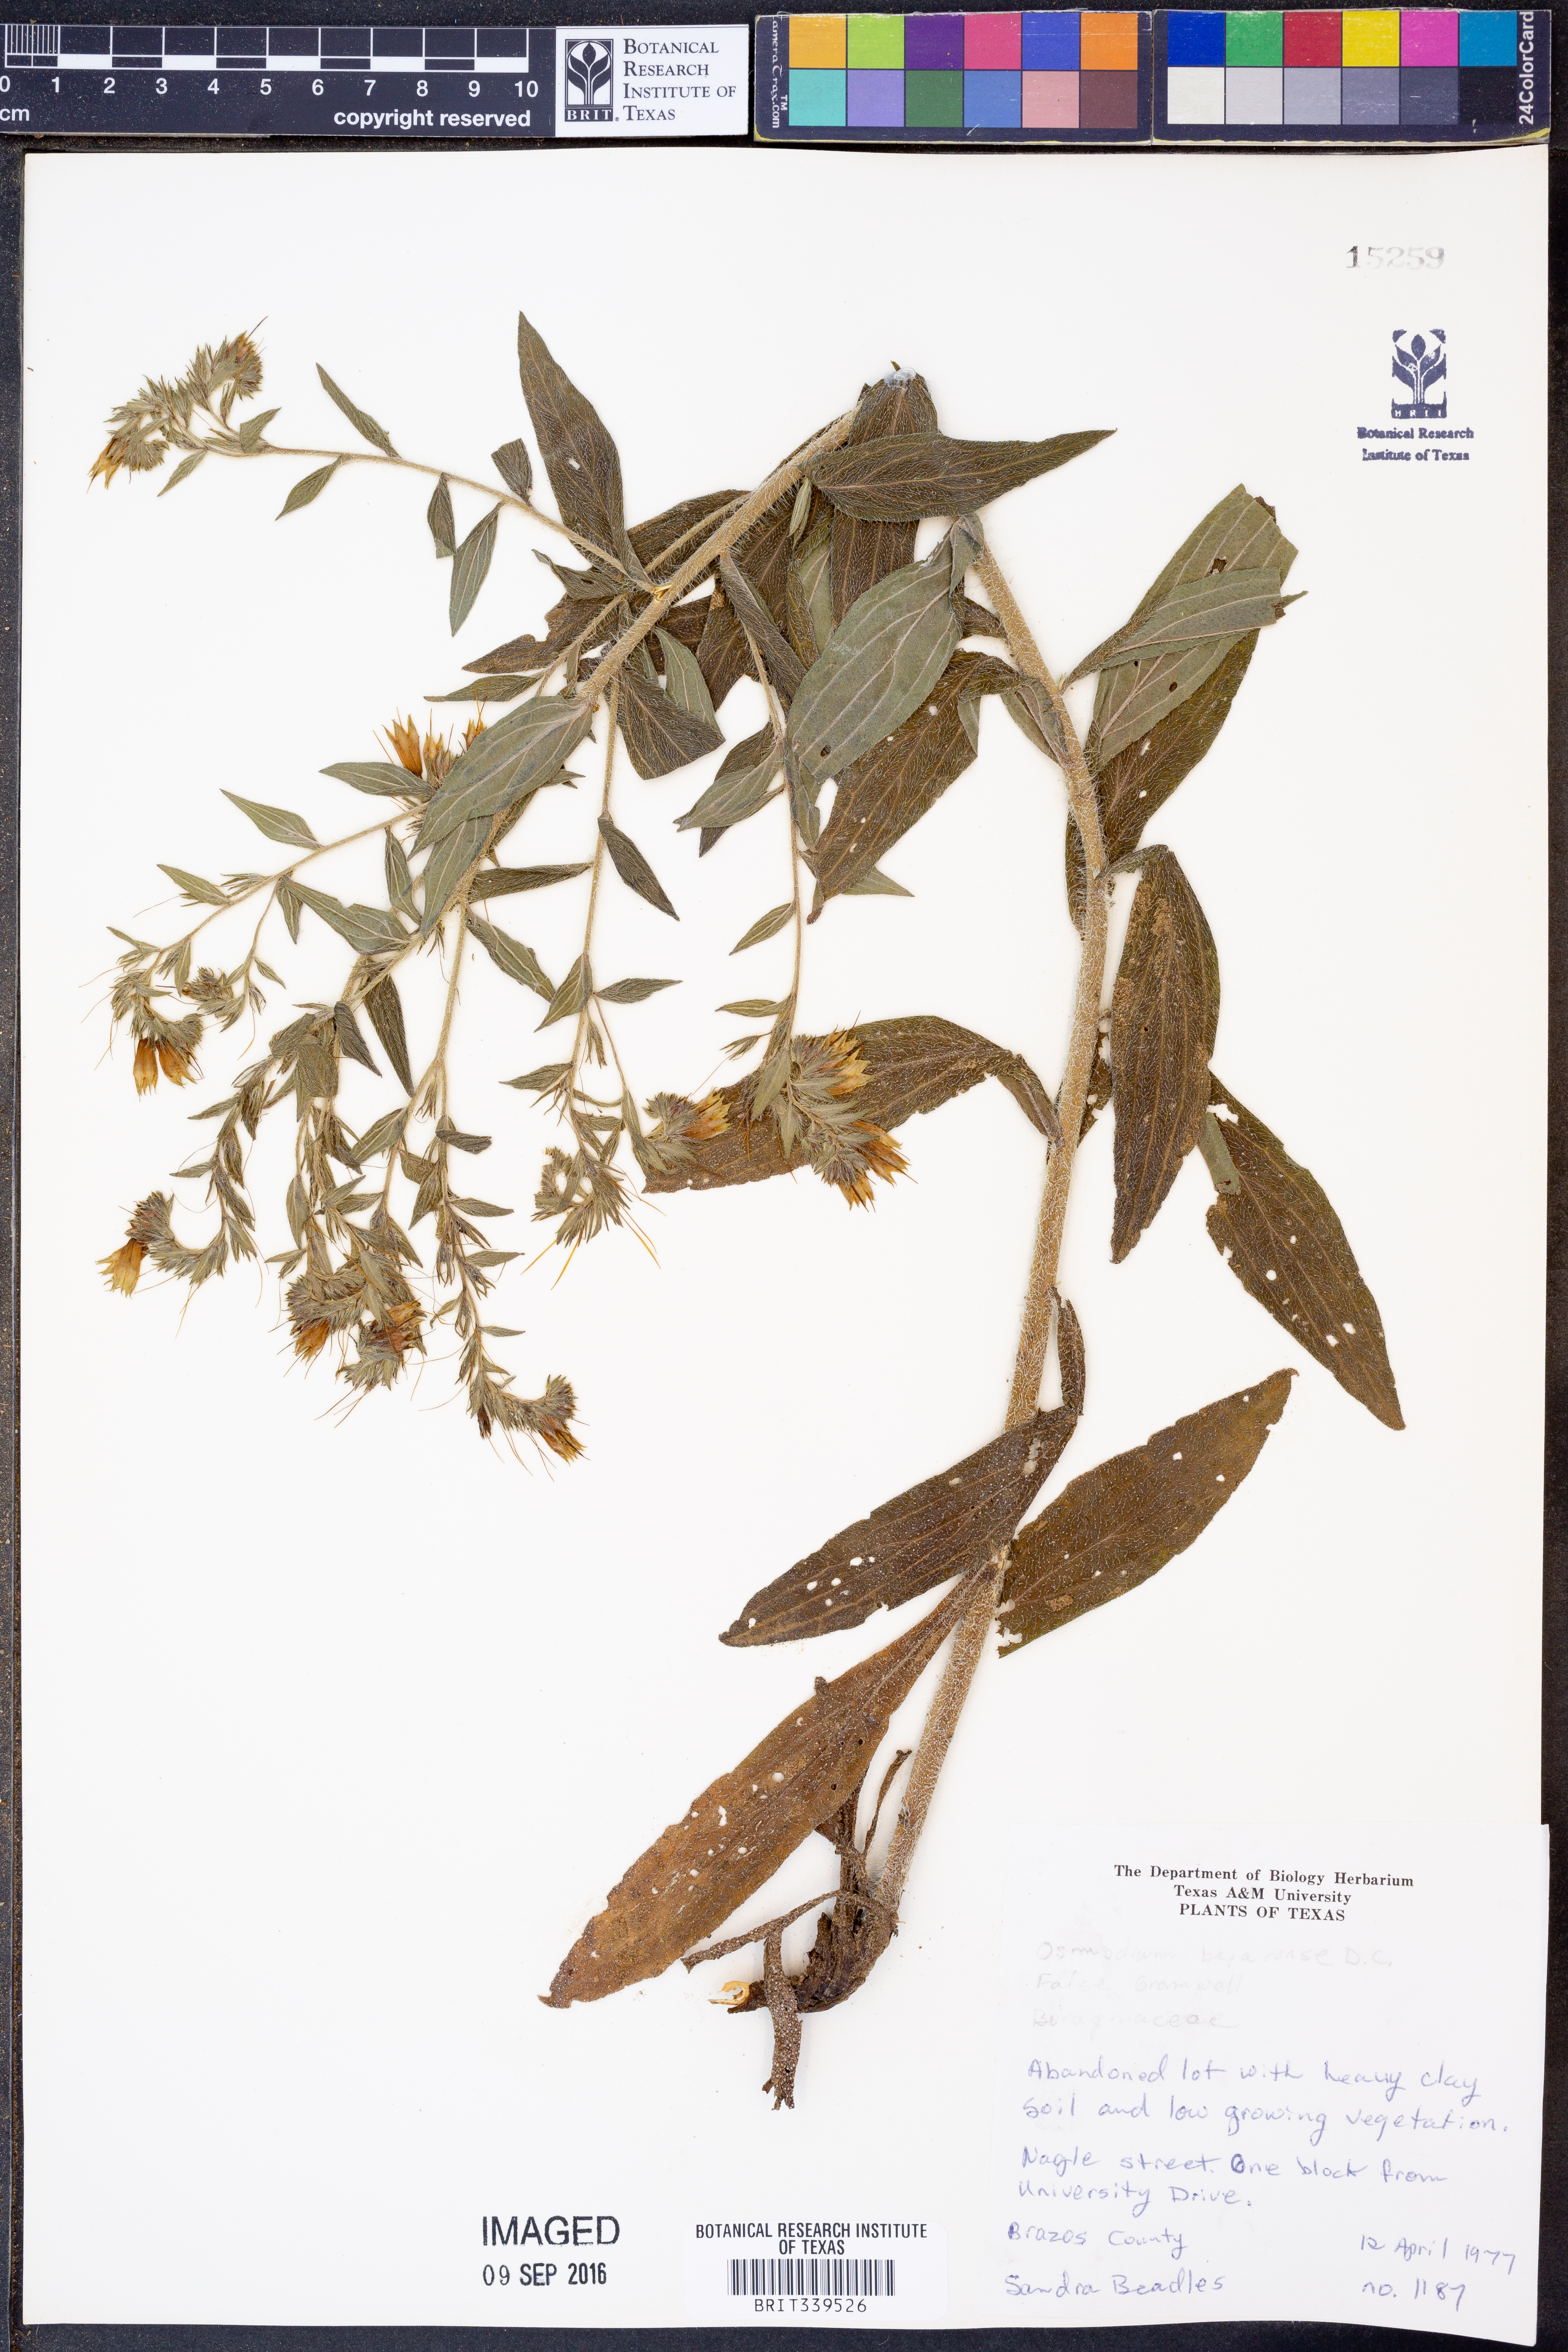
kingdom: Plantae
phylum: Tracheophyta
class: Magnoliopsida
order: Boraginales
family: Boraginaceae
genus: Lithospermum
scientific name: Lithospermum molle
